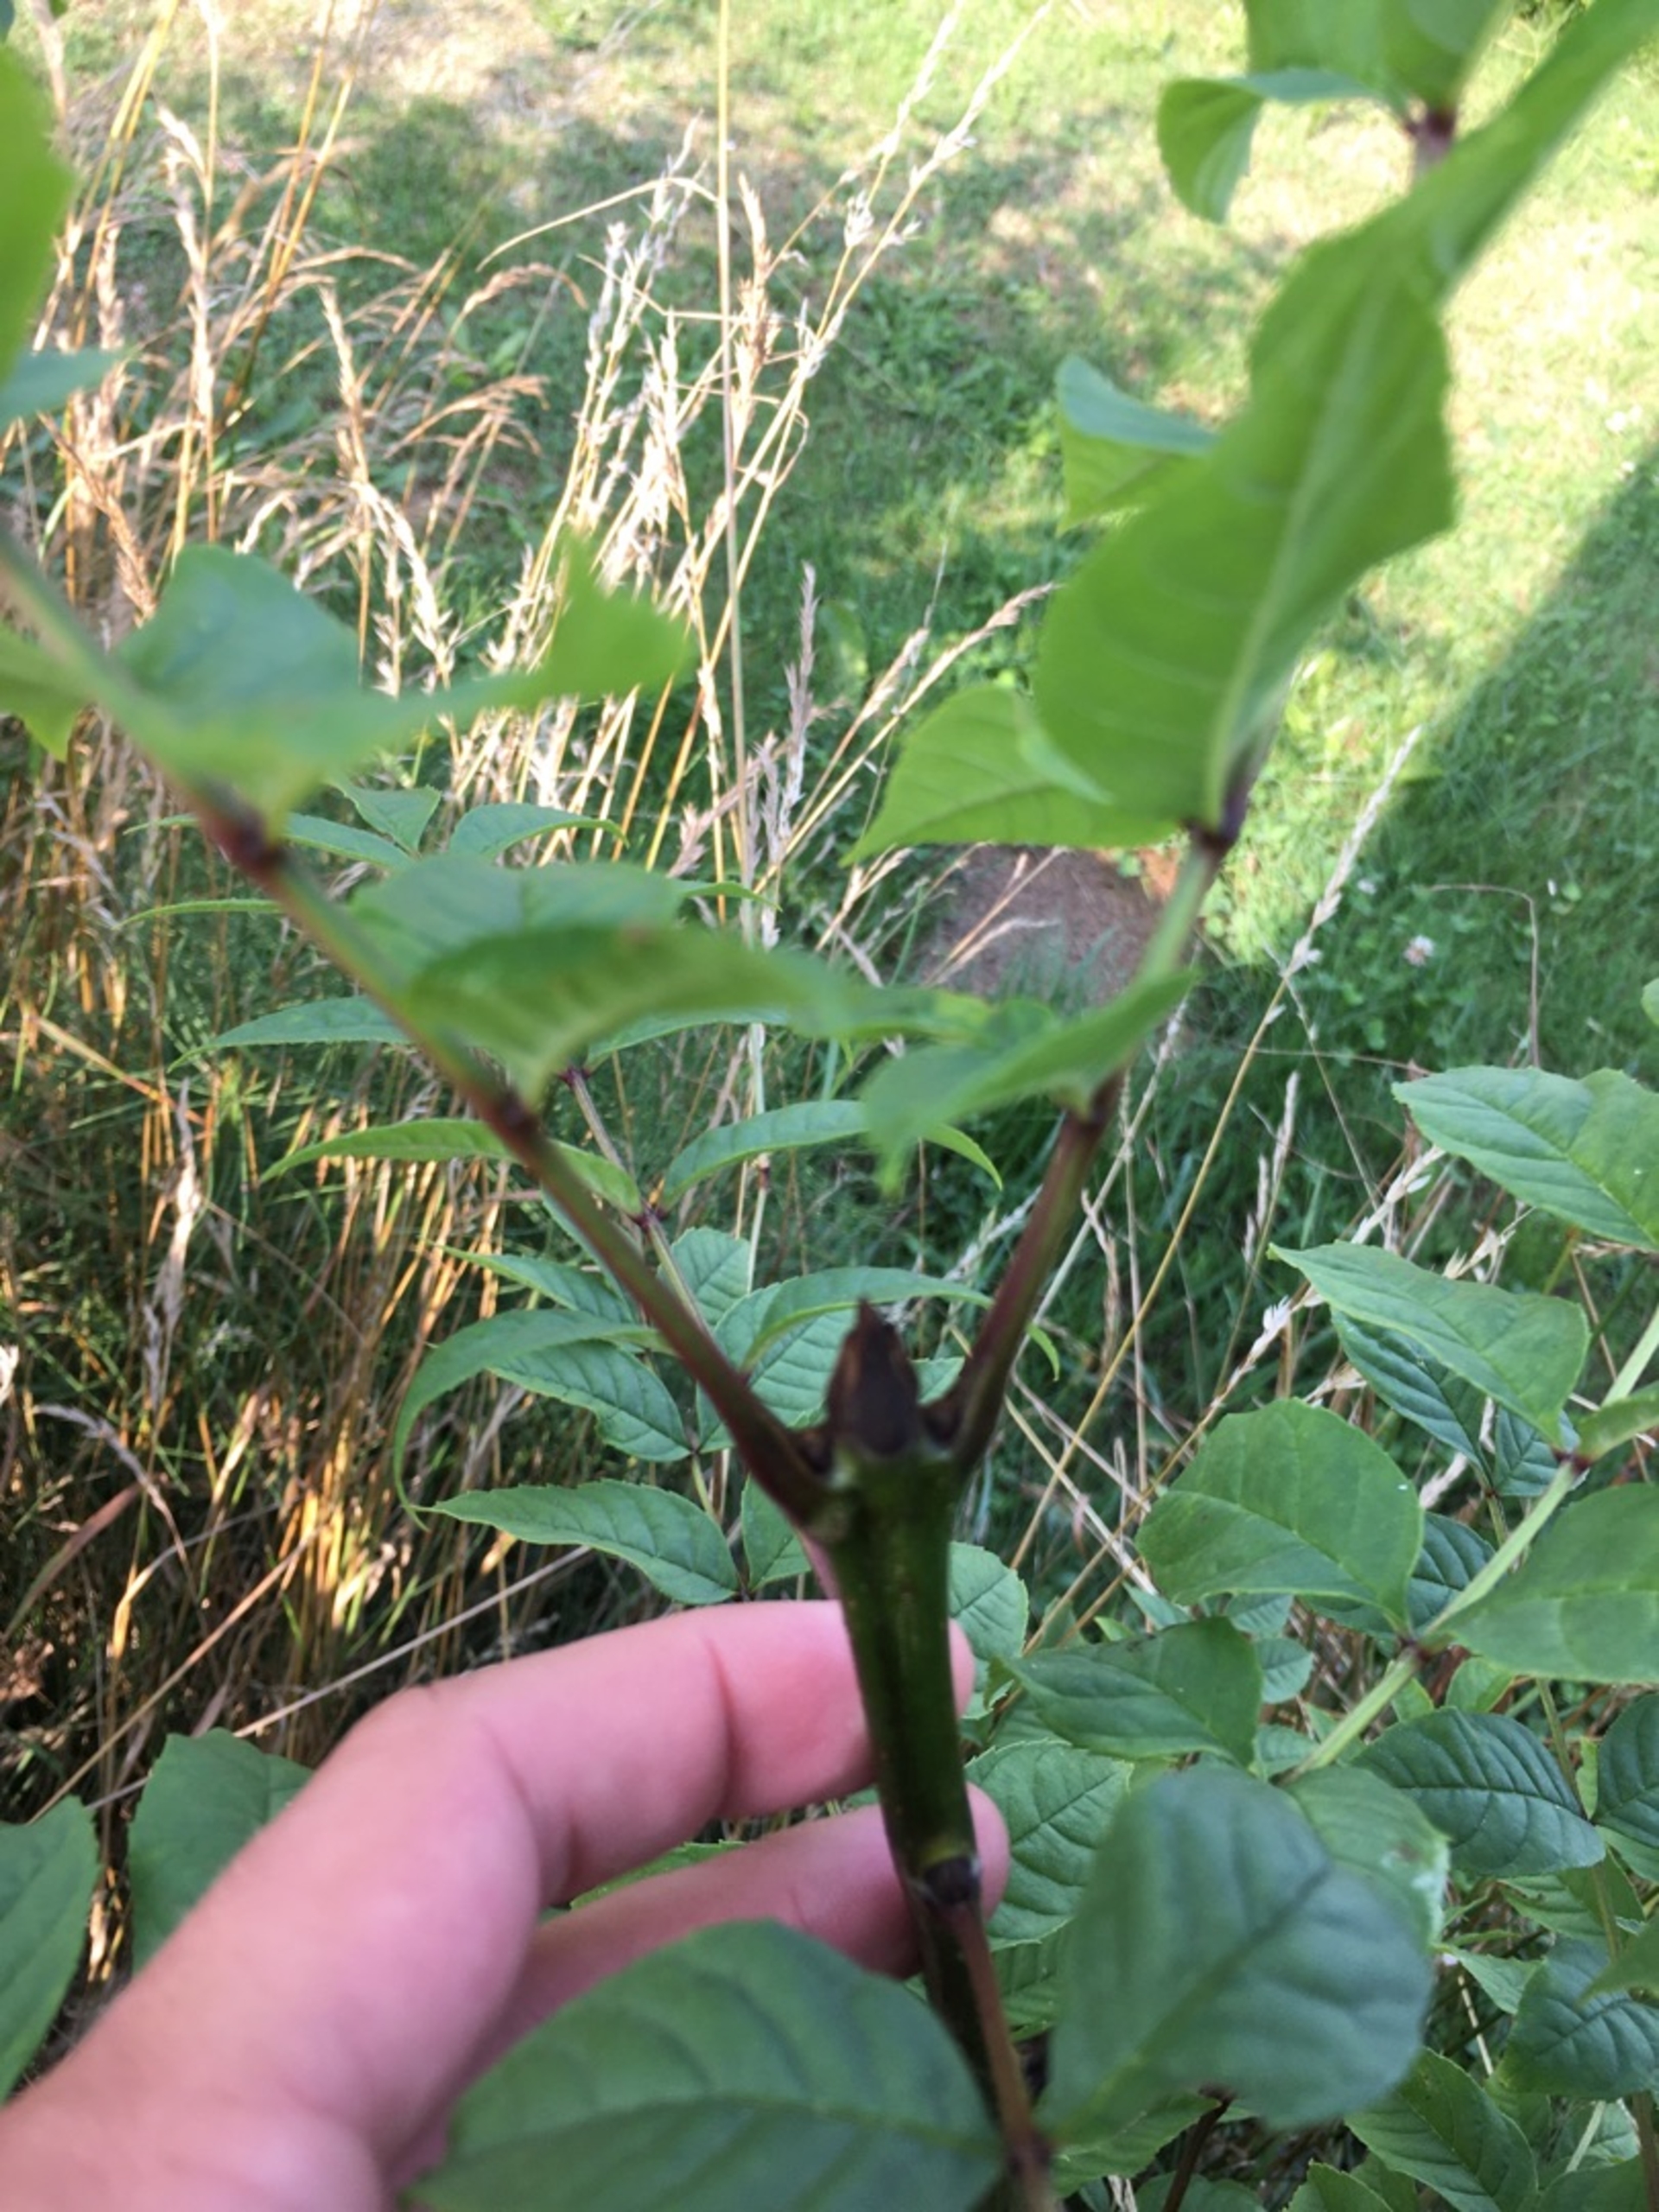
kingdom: Plantae
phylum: Tracheophyta
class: Magnoliopsida
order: Lamiales
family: Oleaceae
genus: Fraxinus
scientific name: Fraxinus excelsior
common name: Ask
